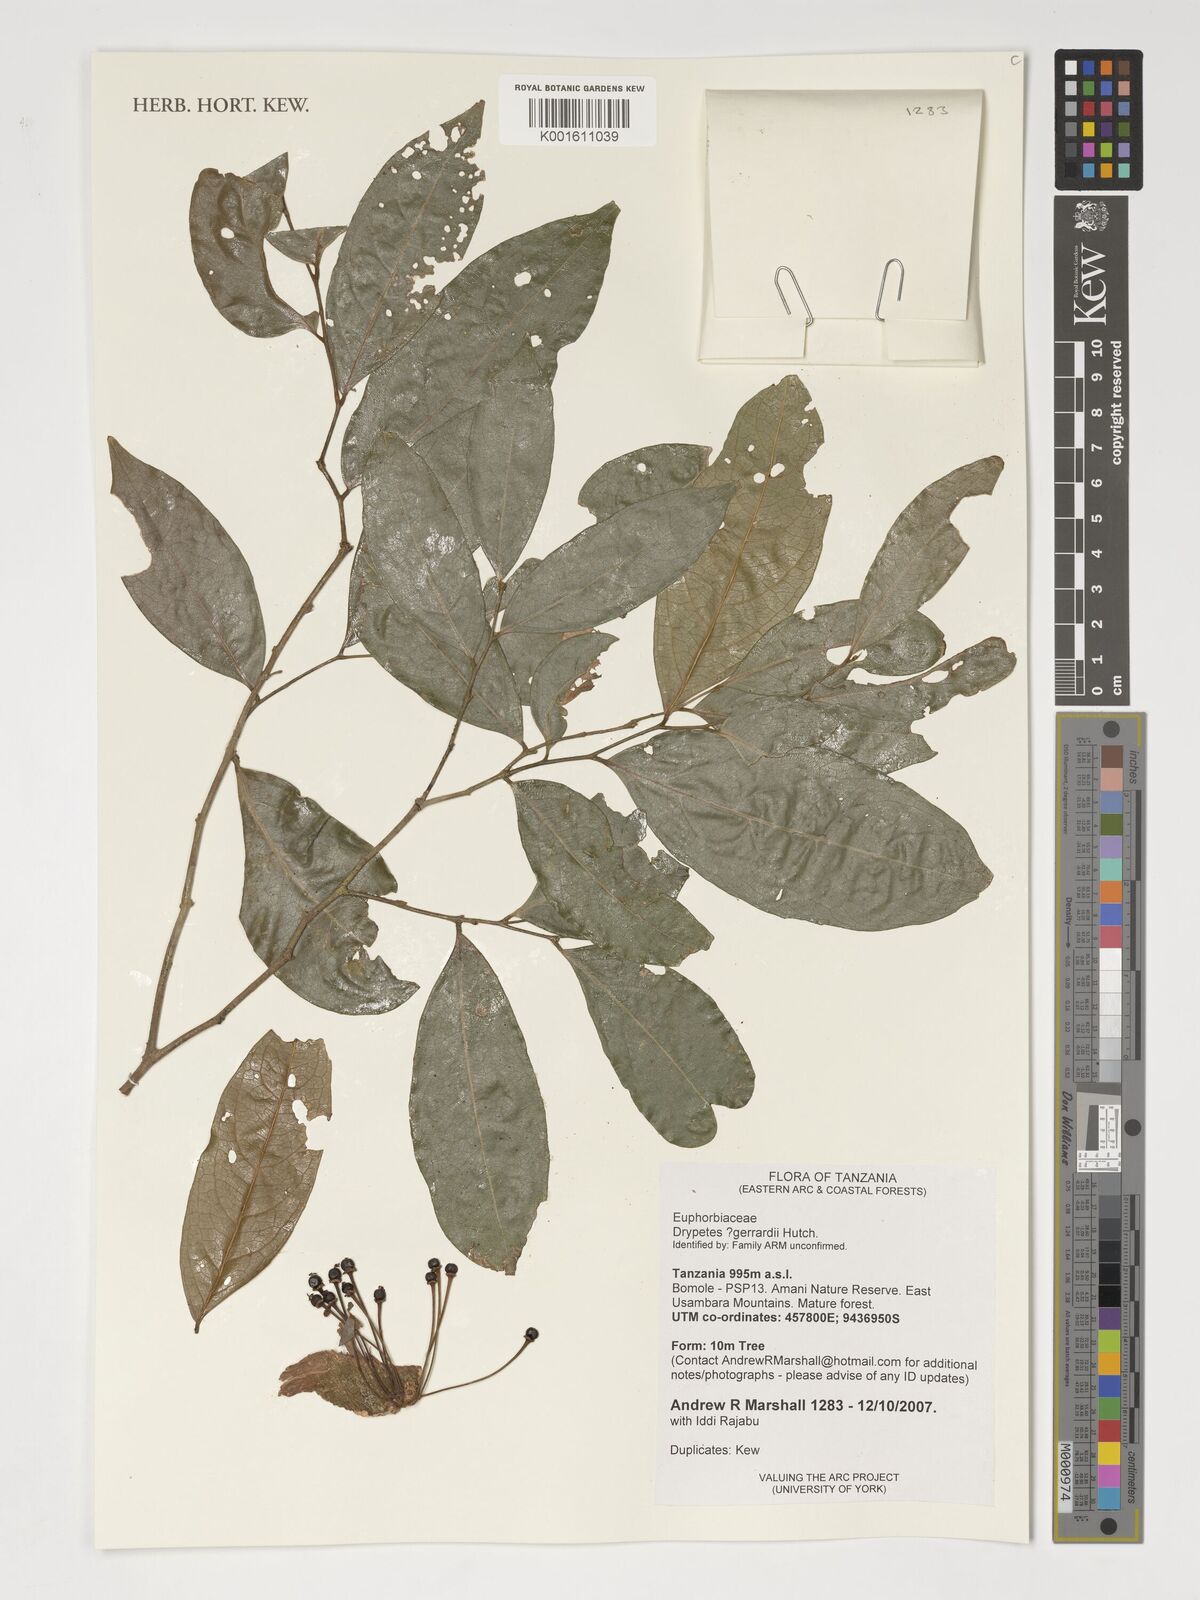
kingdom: Plantae
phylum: Tracheophyta
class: Magnoliopsida
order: Malpighiales
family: Putranjivaceae
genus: Drypetes
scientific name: Drypetes gerrardii
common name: Forest ironplum
